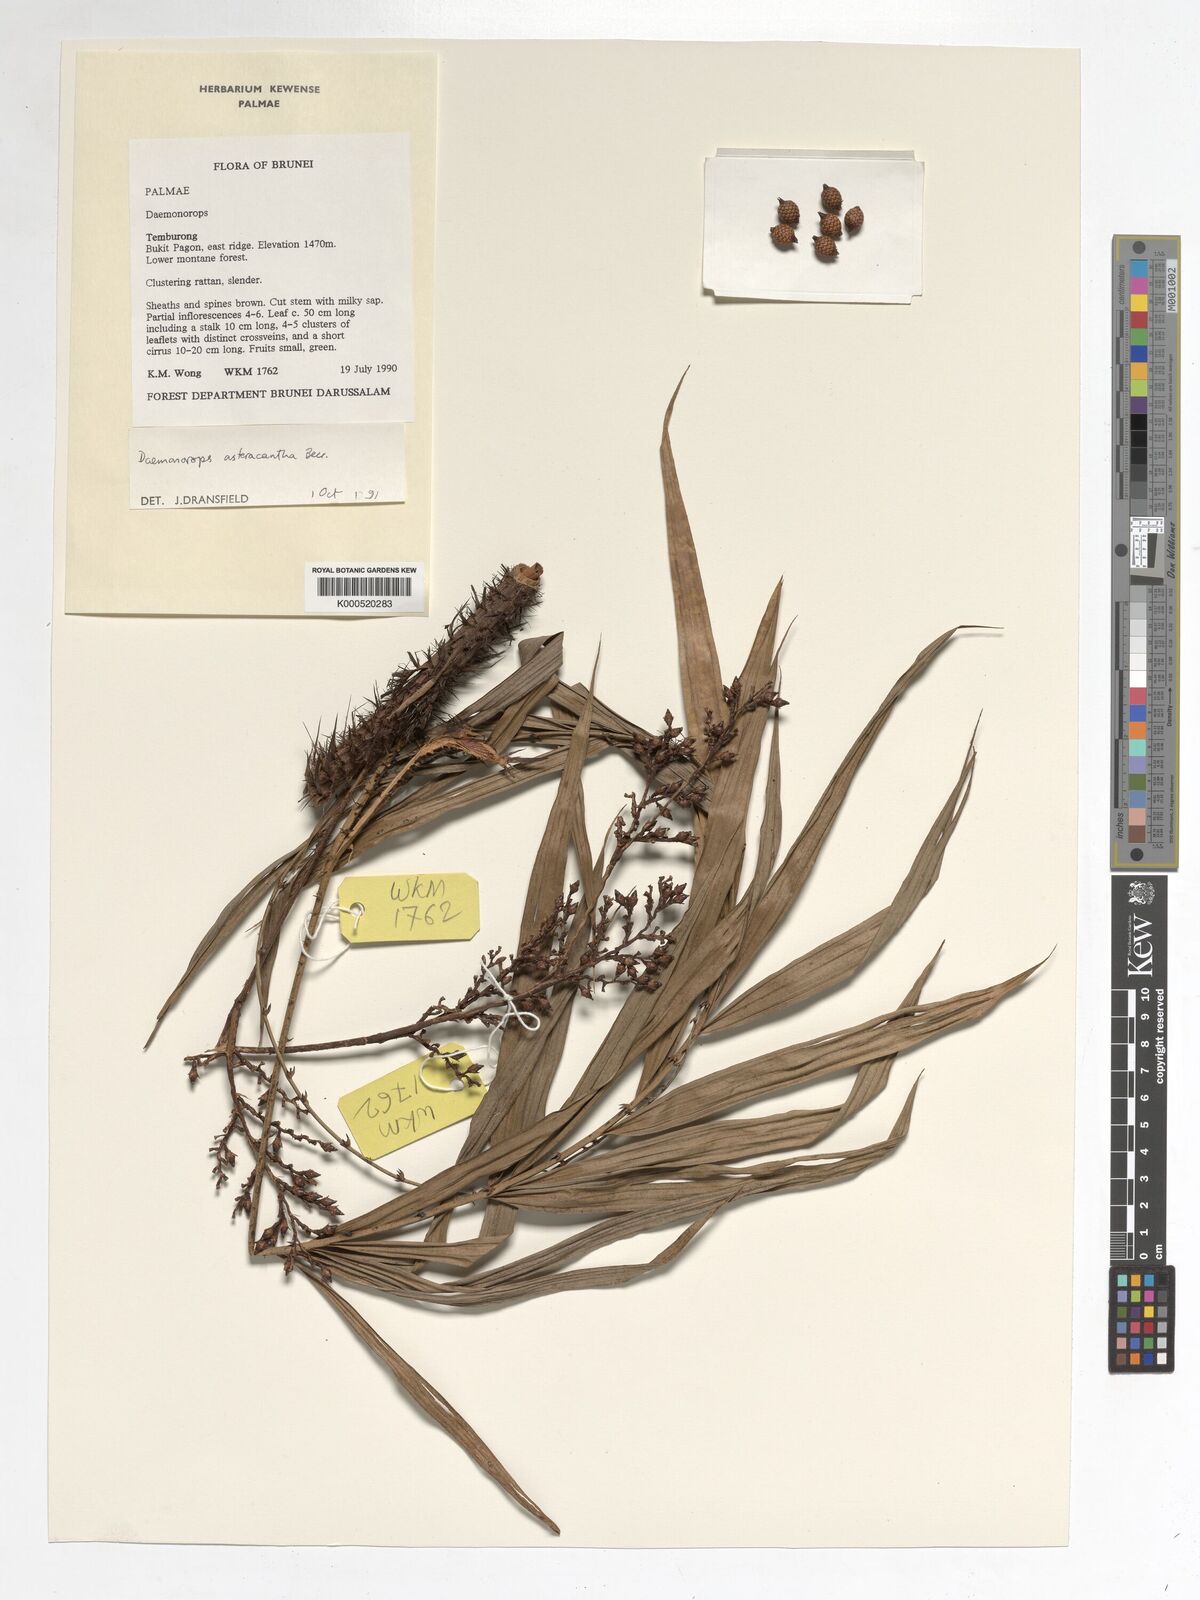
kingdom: Plantae
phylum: Tracheophyta
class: Liliopsida
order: Arecales
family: Arecaceae
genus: Calamus
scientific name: Calamus asteracanthus
